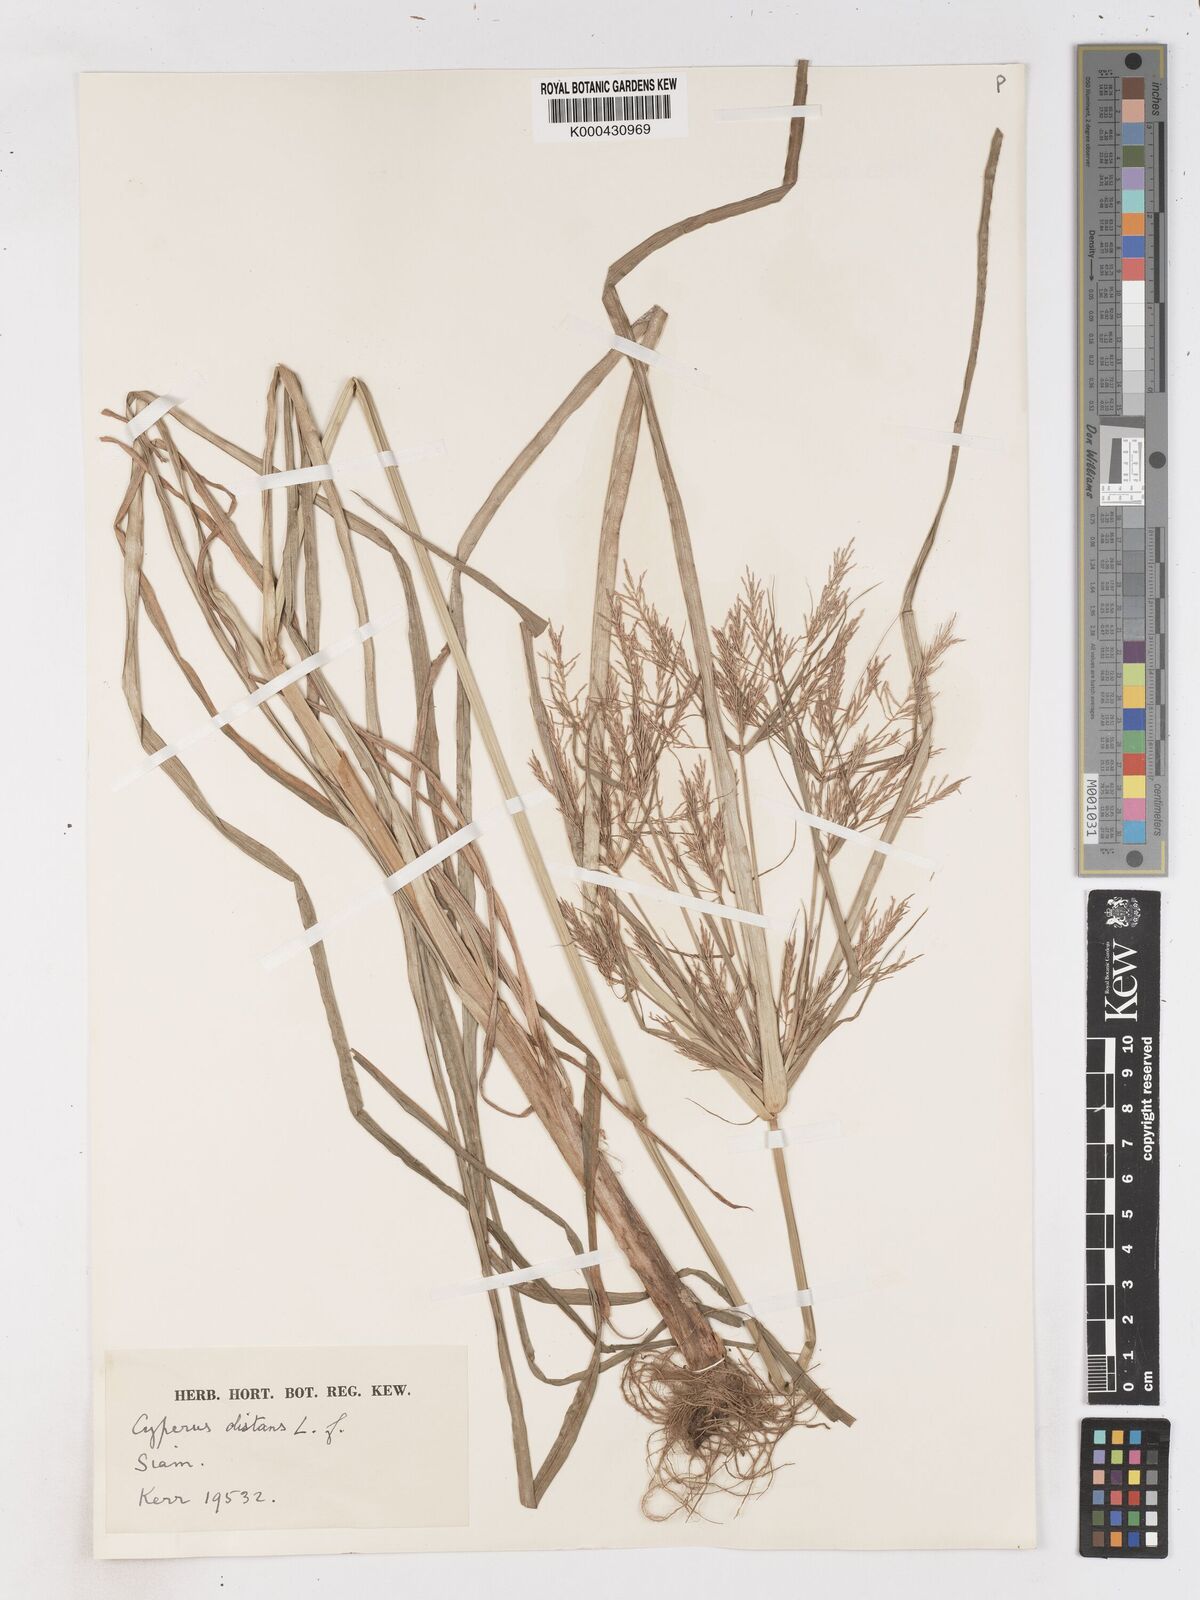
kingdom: Plantae
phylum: Tracheophyta
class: Liliopsida
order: Poales
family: Cyperaceae
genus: Cyperus
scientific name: Cyperus distans
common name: Slender cyperus
